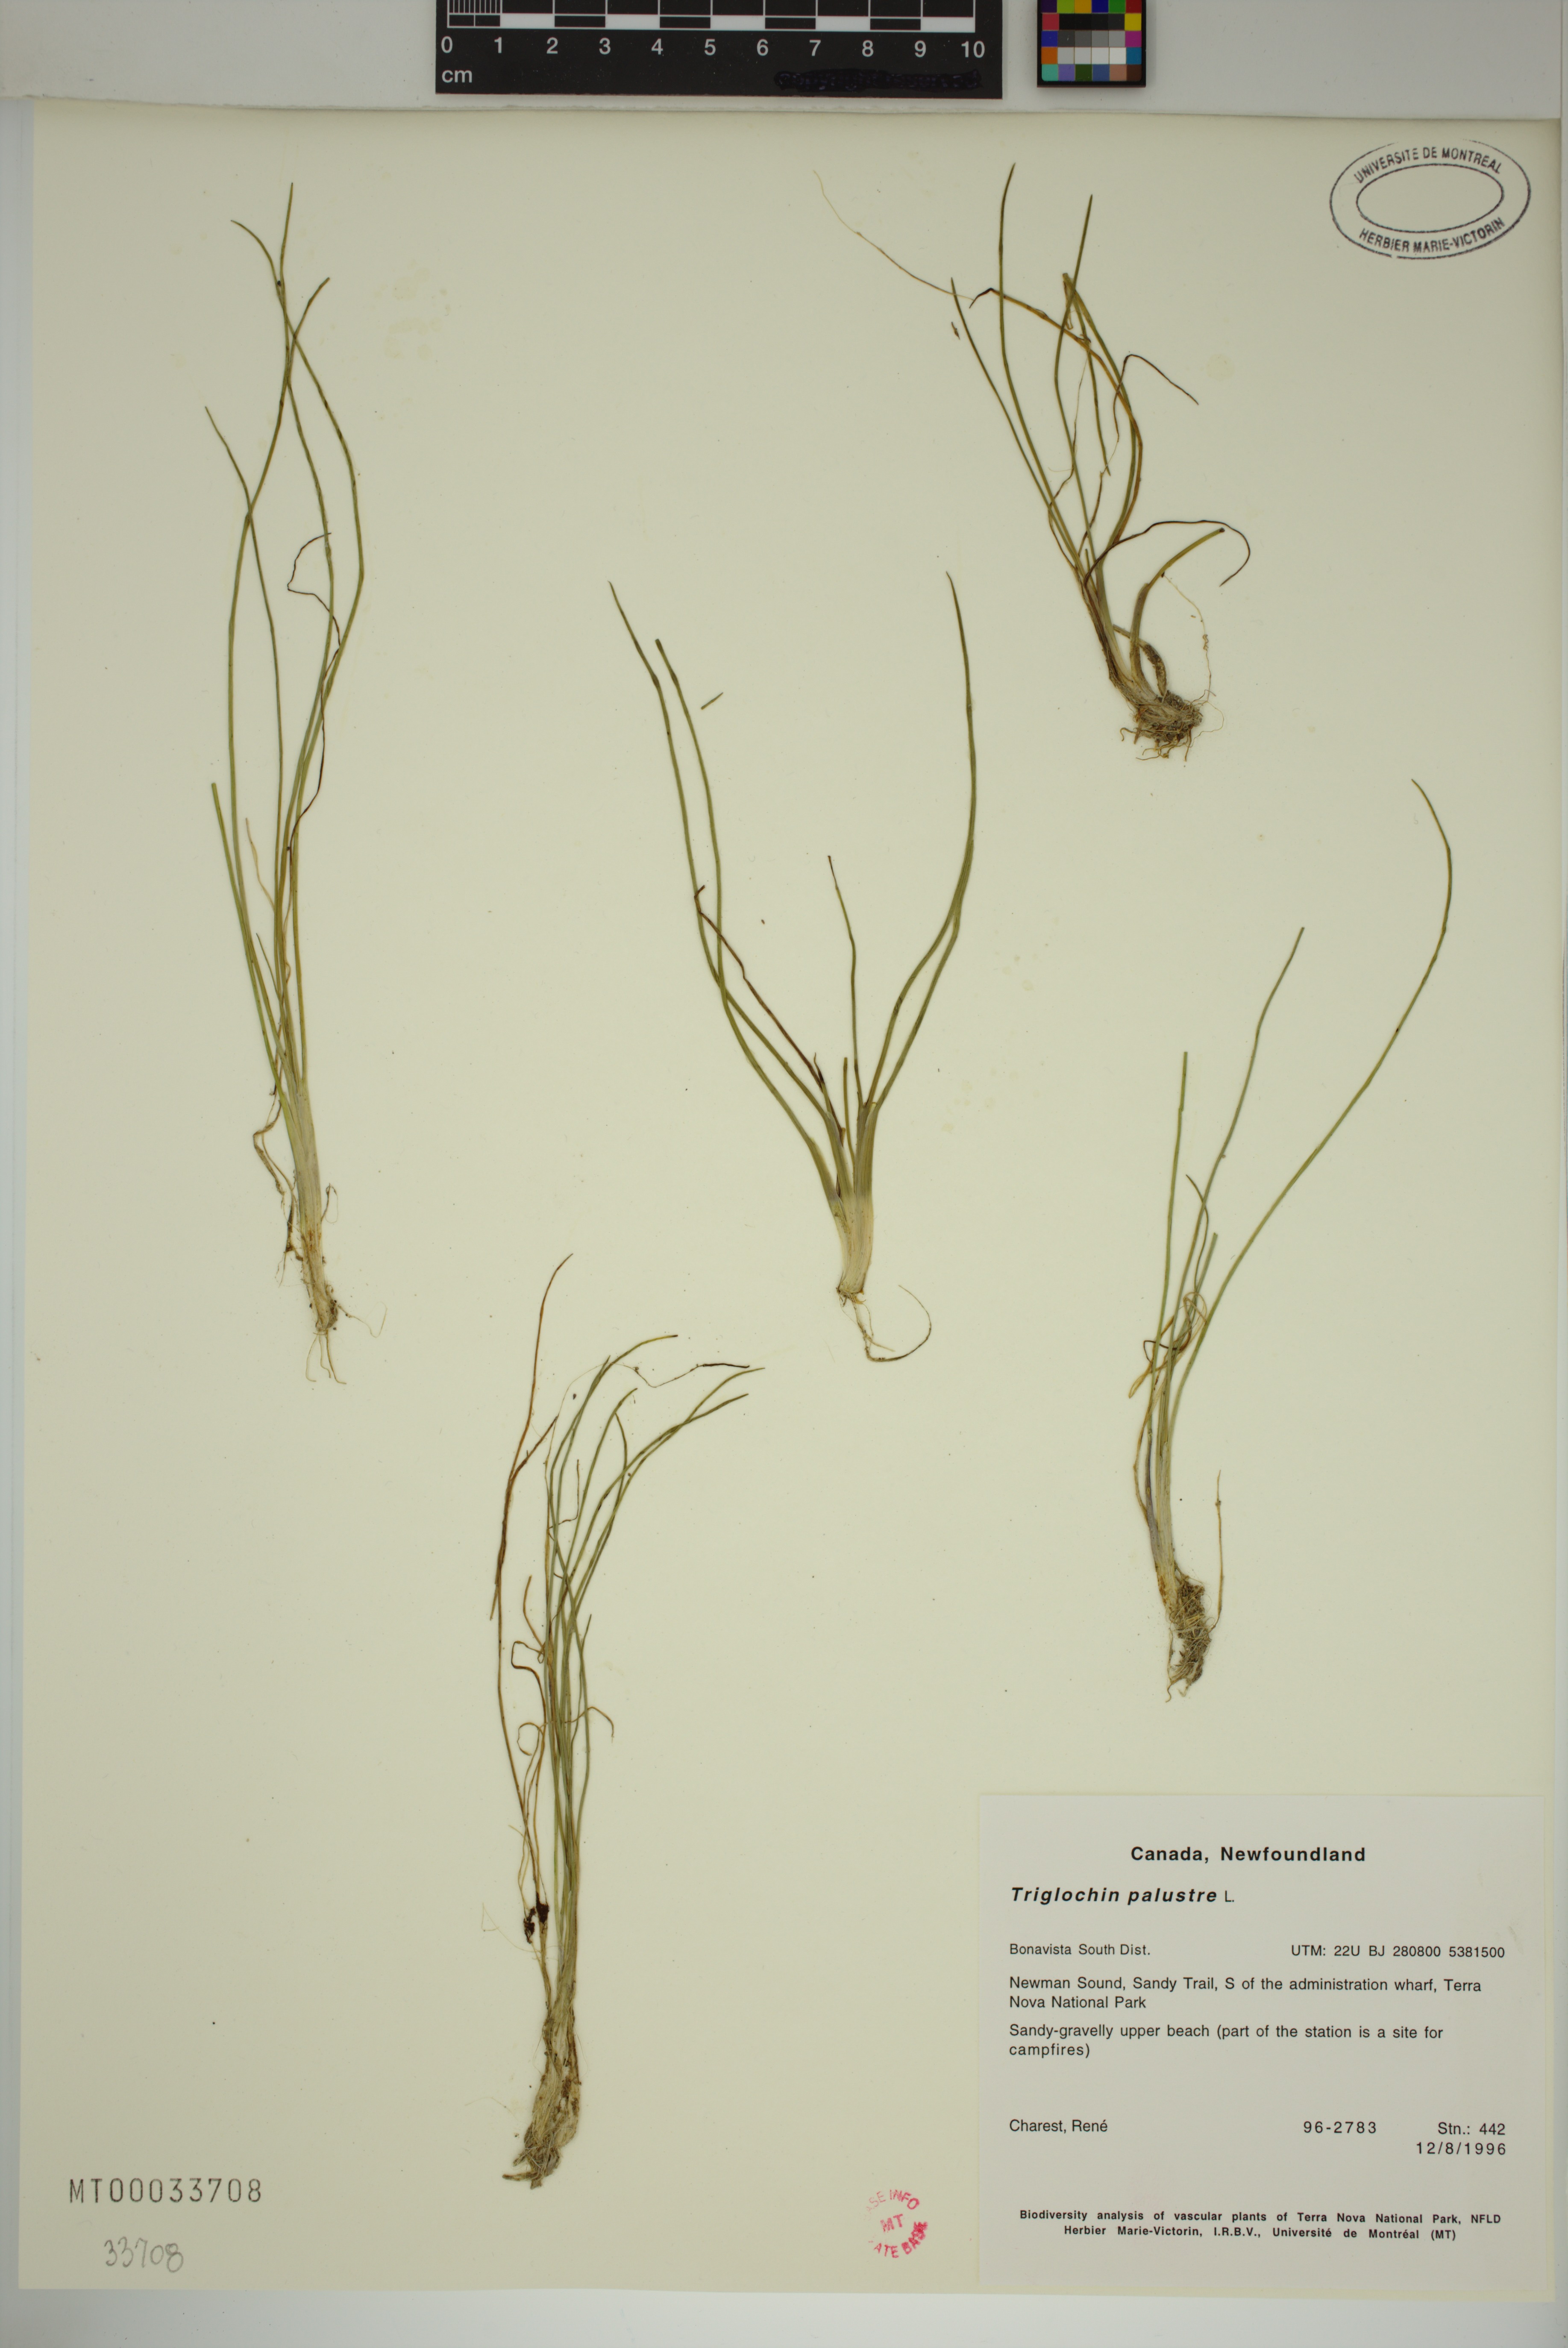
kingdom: Plantae
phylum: Tracheophyta
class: Liliopsida
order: Alismatales
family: Juncaginaceae
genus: Triglochin
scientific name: Triglochin palustris
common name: Marsh arrowgrass
